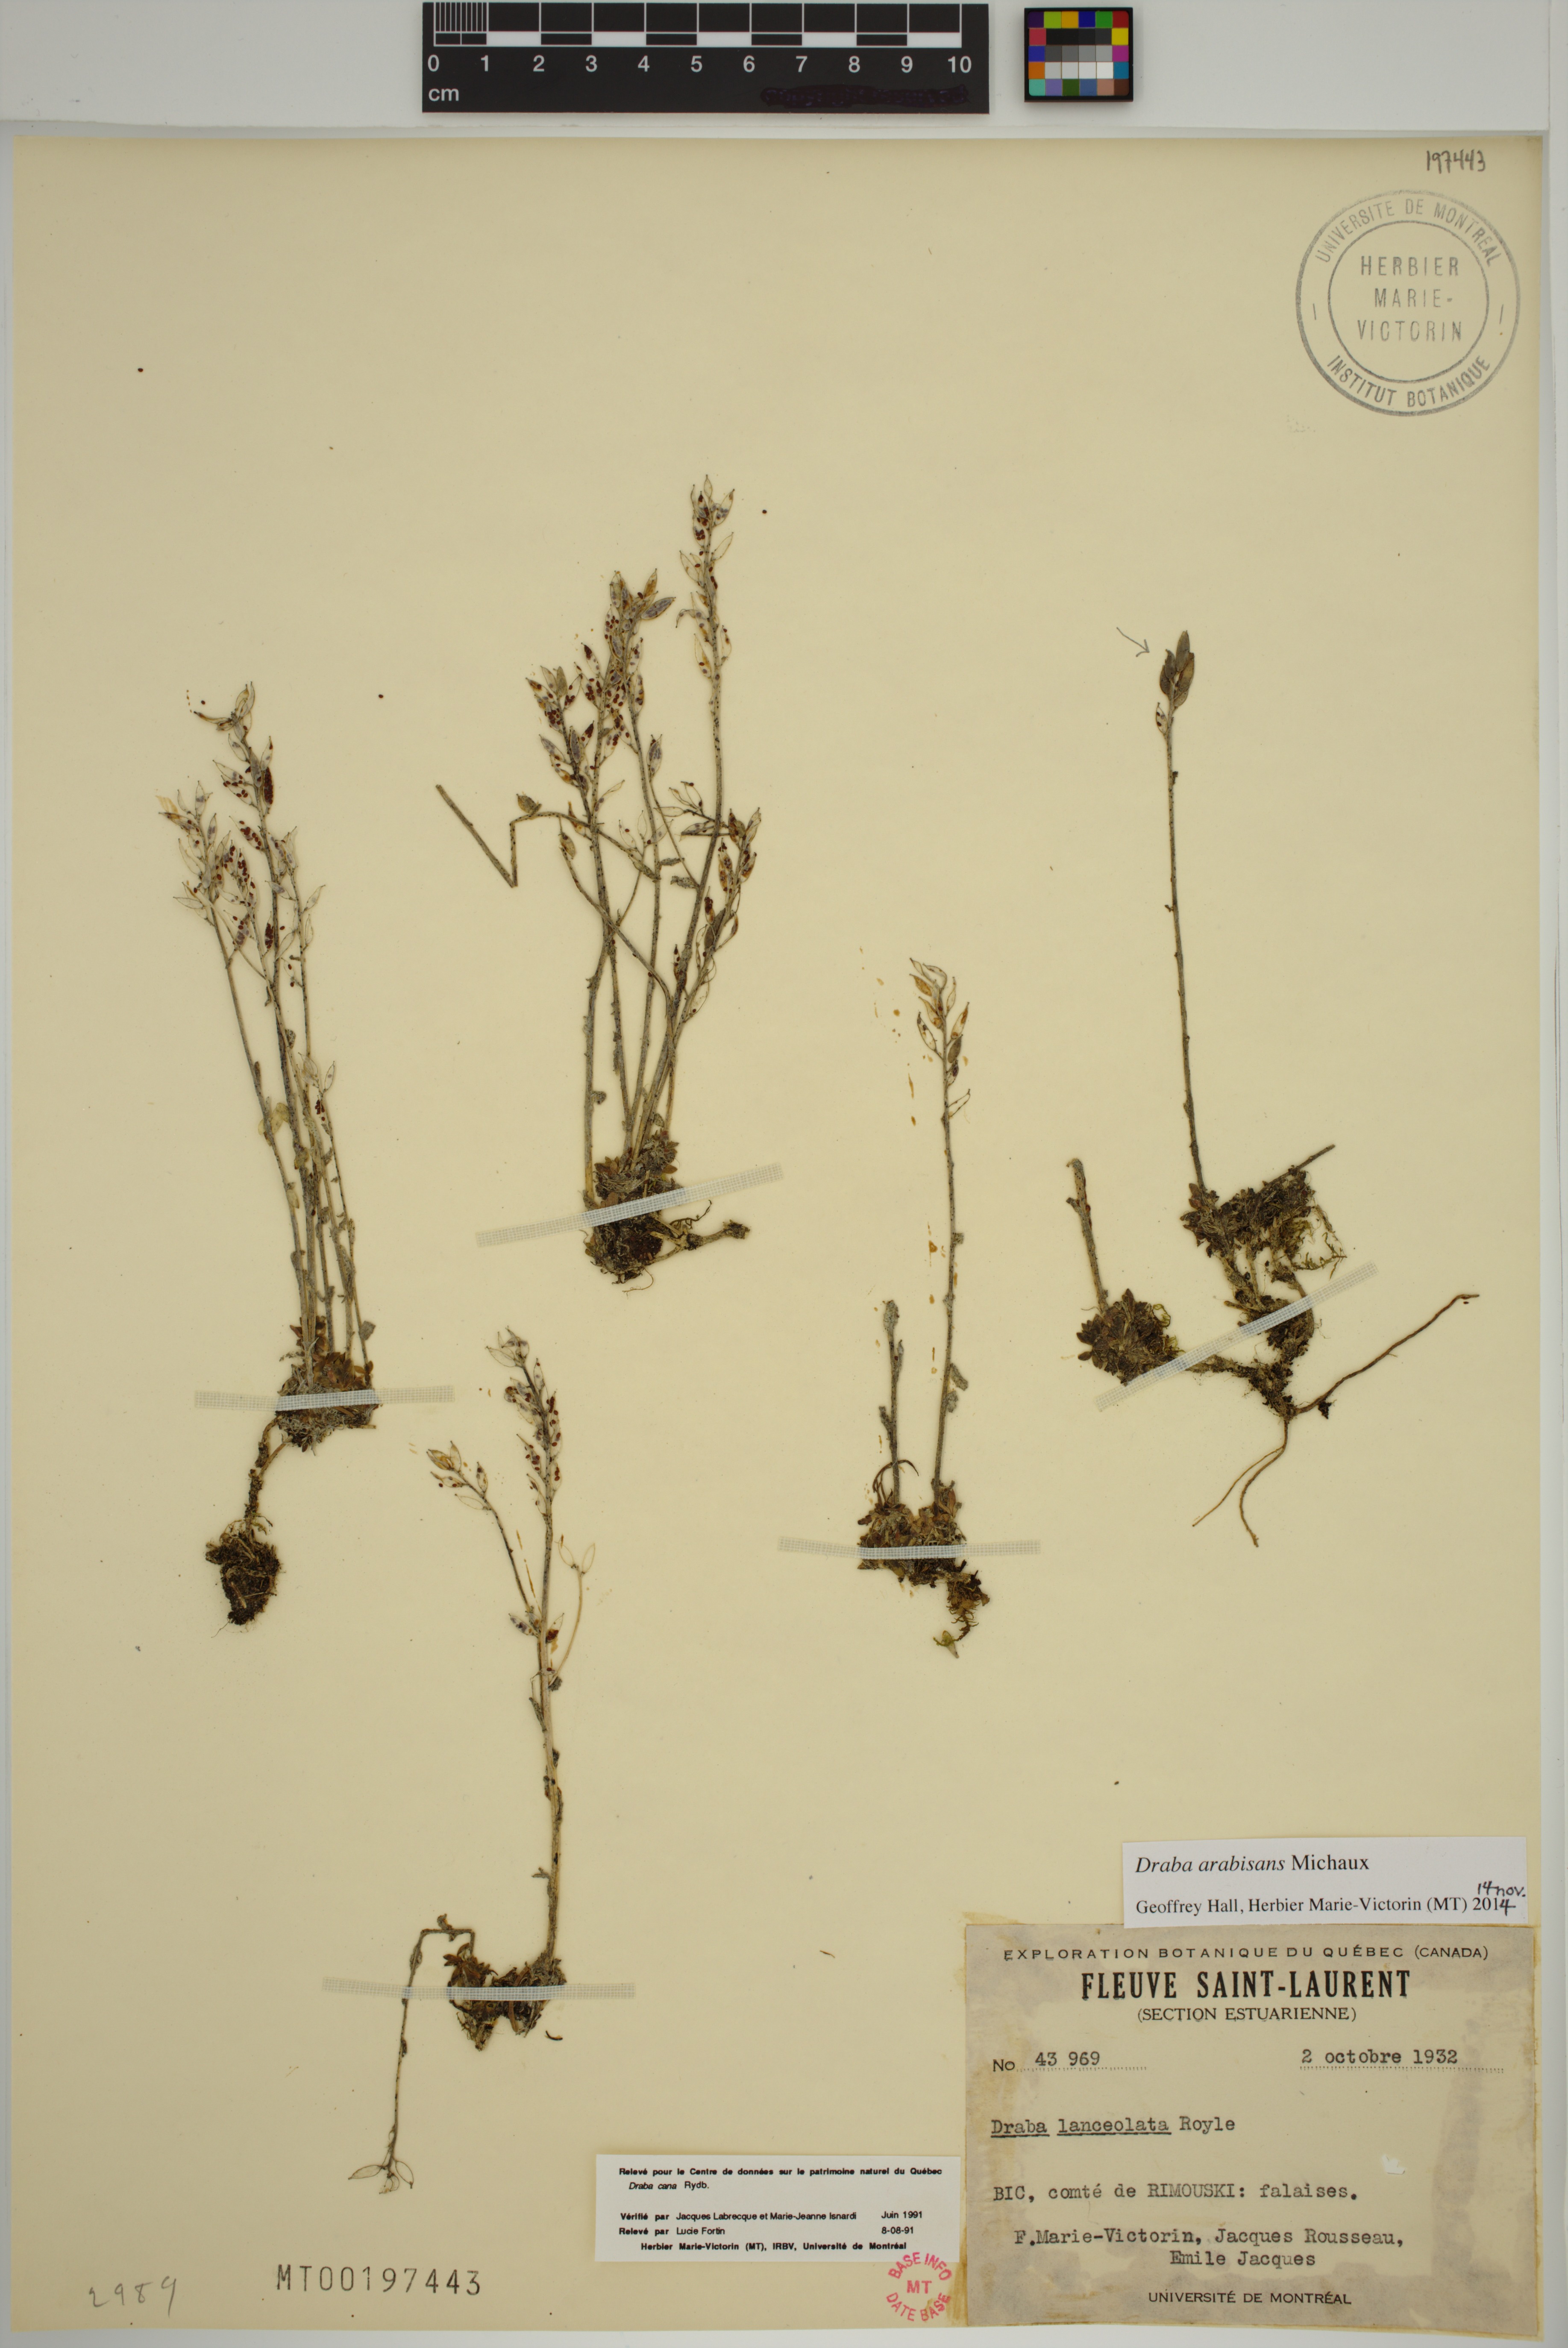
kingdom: Plantae
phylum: Tracheophyta
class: Magnoliopsida
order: Brassicales
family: Brassicaceae
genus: Draba
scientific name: Draba arabisans
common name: Rock draba
